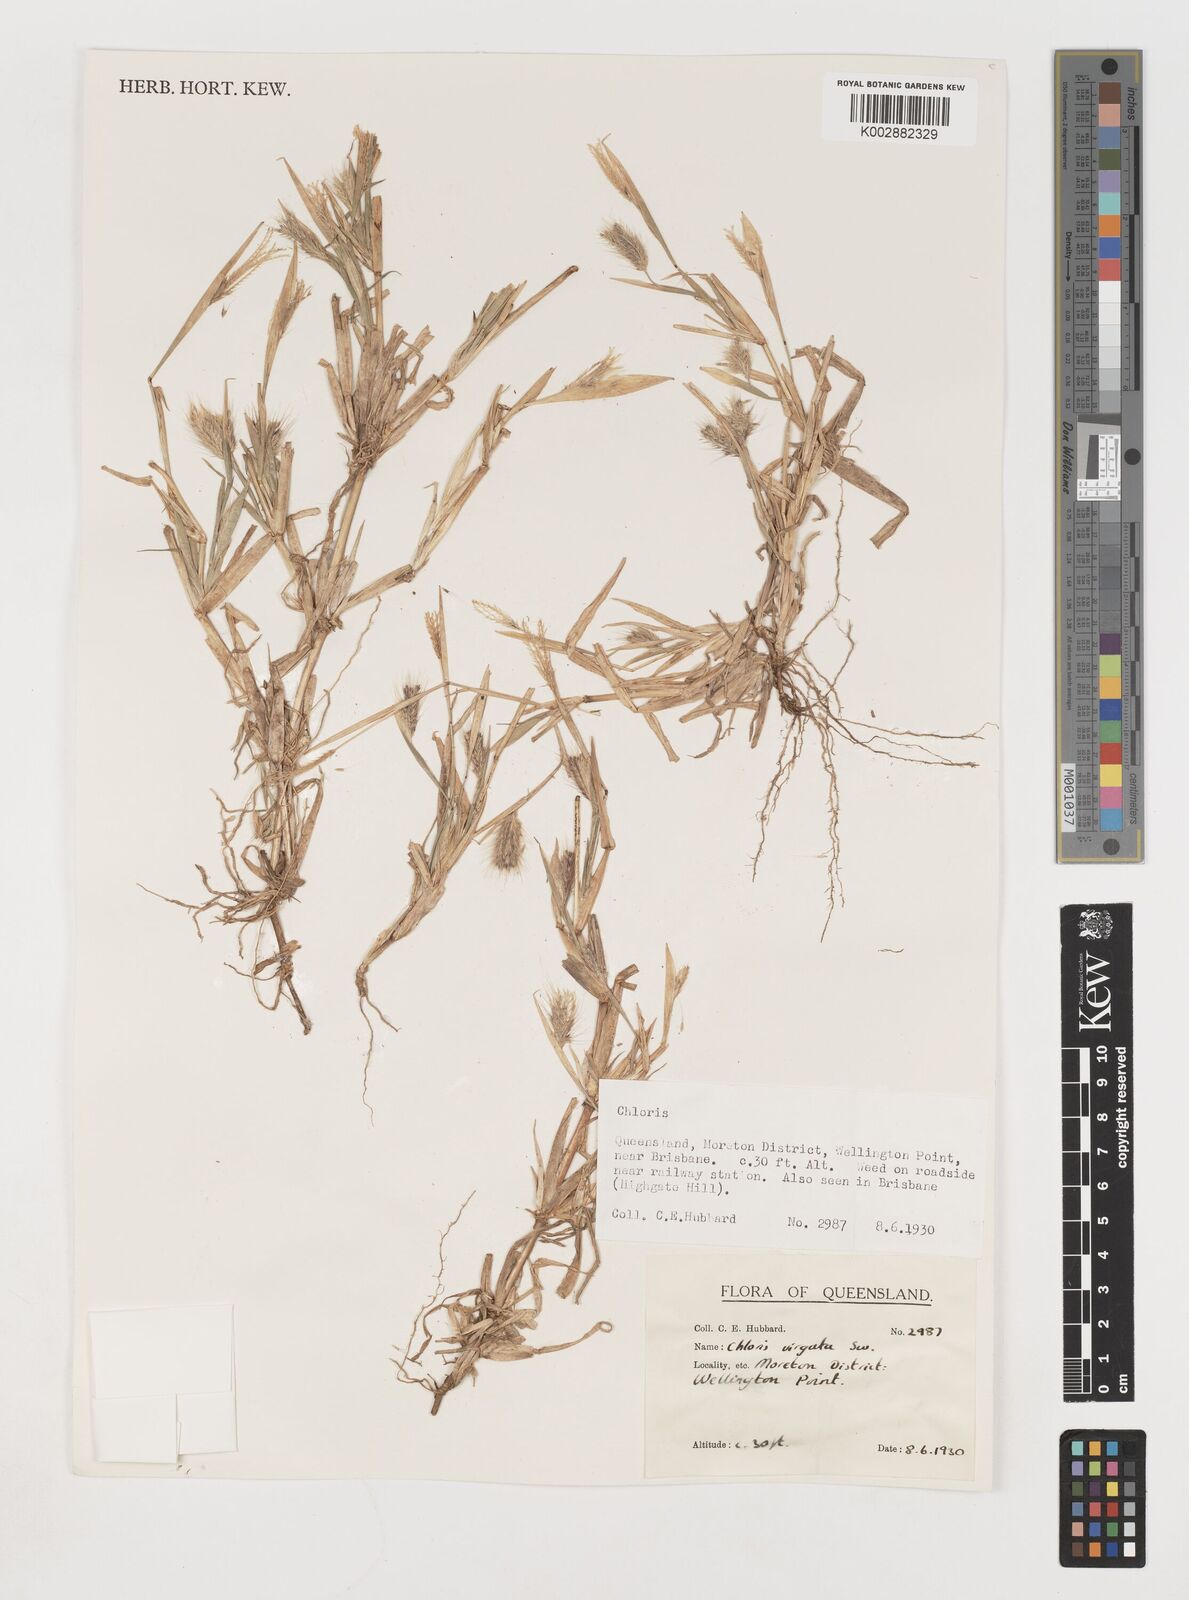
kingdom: Plantae
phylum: Tracheophyta
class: Liliopsida
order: Poales
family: Poaceae
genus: Chloris
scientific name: Chloris virgata
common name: Feathery rhodes-grass
